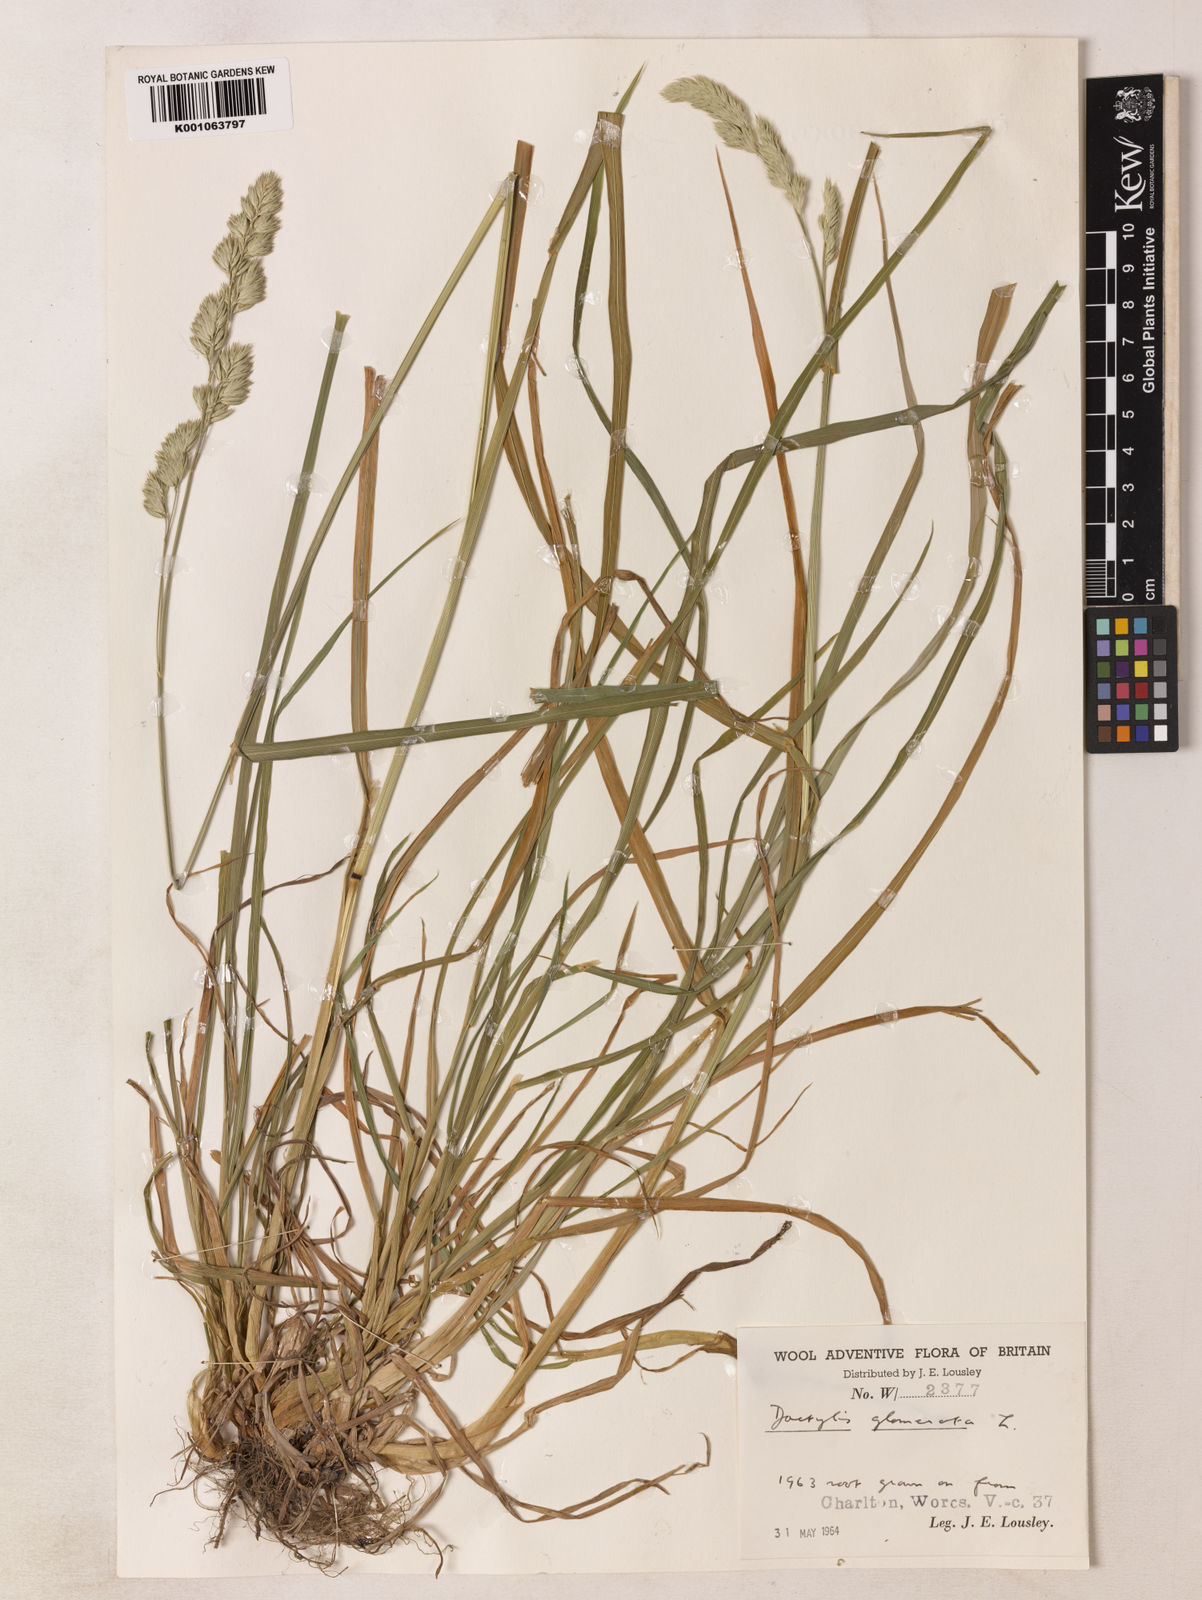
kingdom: Plantae
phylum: Tracheophyta
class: Liliopsida
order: Poales
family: Poaceae
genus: Dactylis
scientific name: Dactylis glomerata
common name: Orchardgrass
